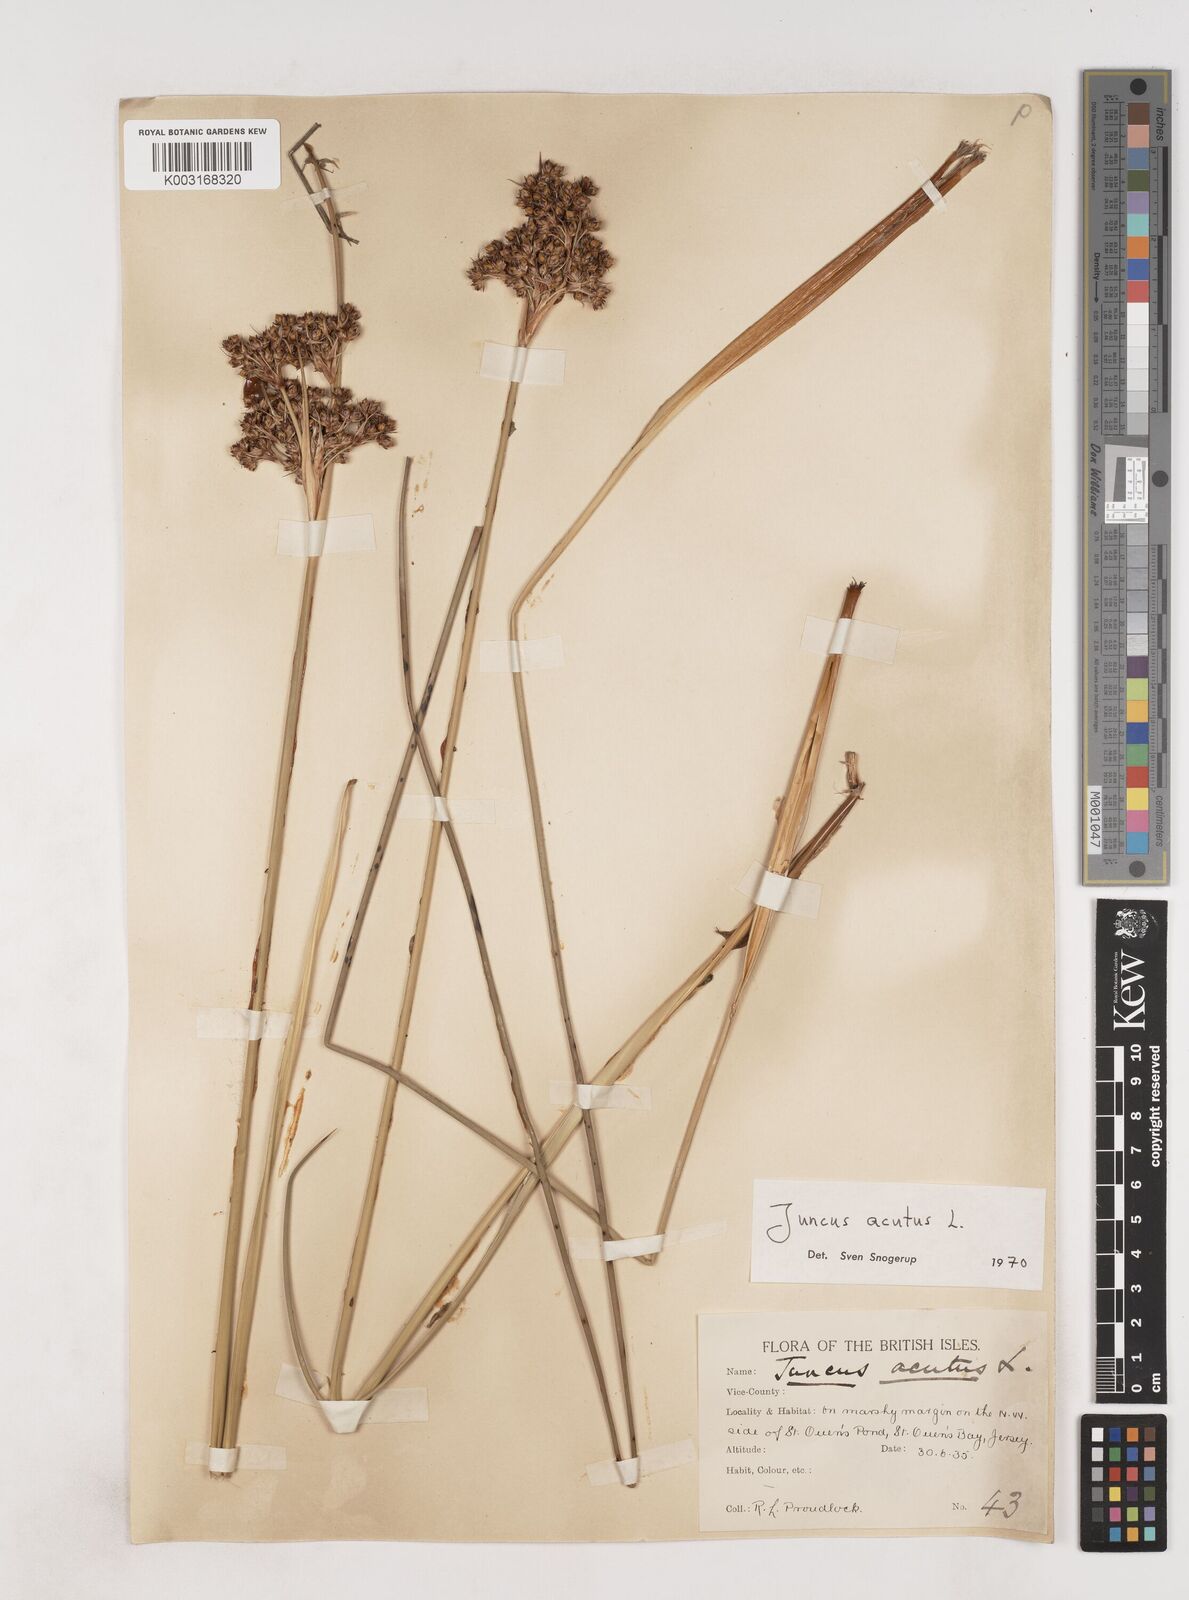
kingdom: Plantae
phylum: Tracheophyta
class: Liliopsida
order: Poales
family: Juncaceae
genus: Juncus
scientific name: Juncus acutus
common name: Sharp rush
